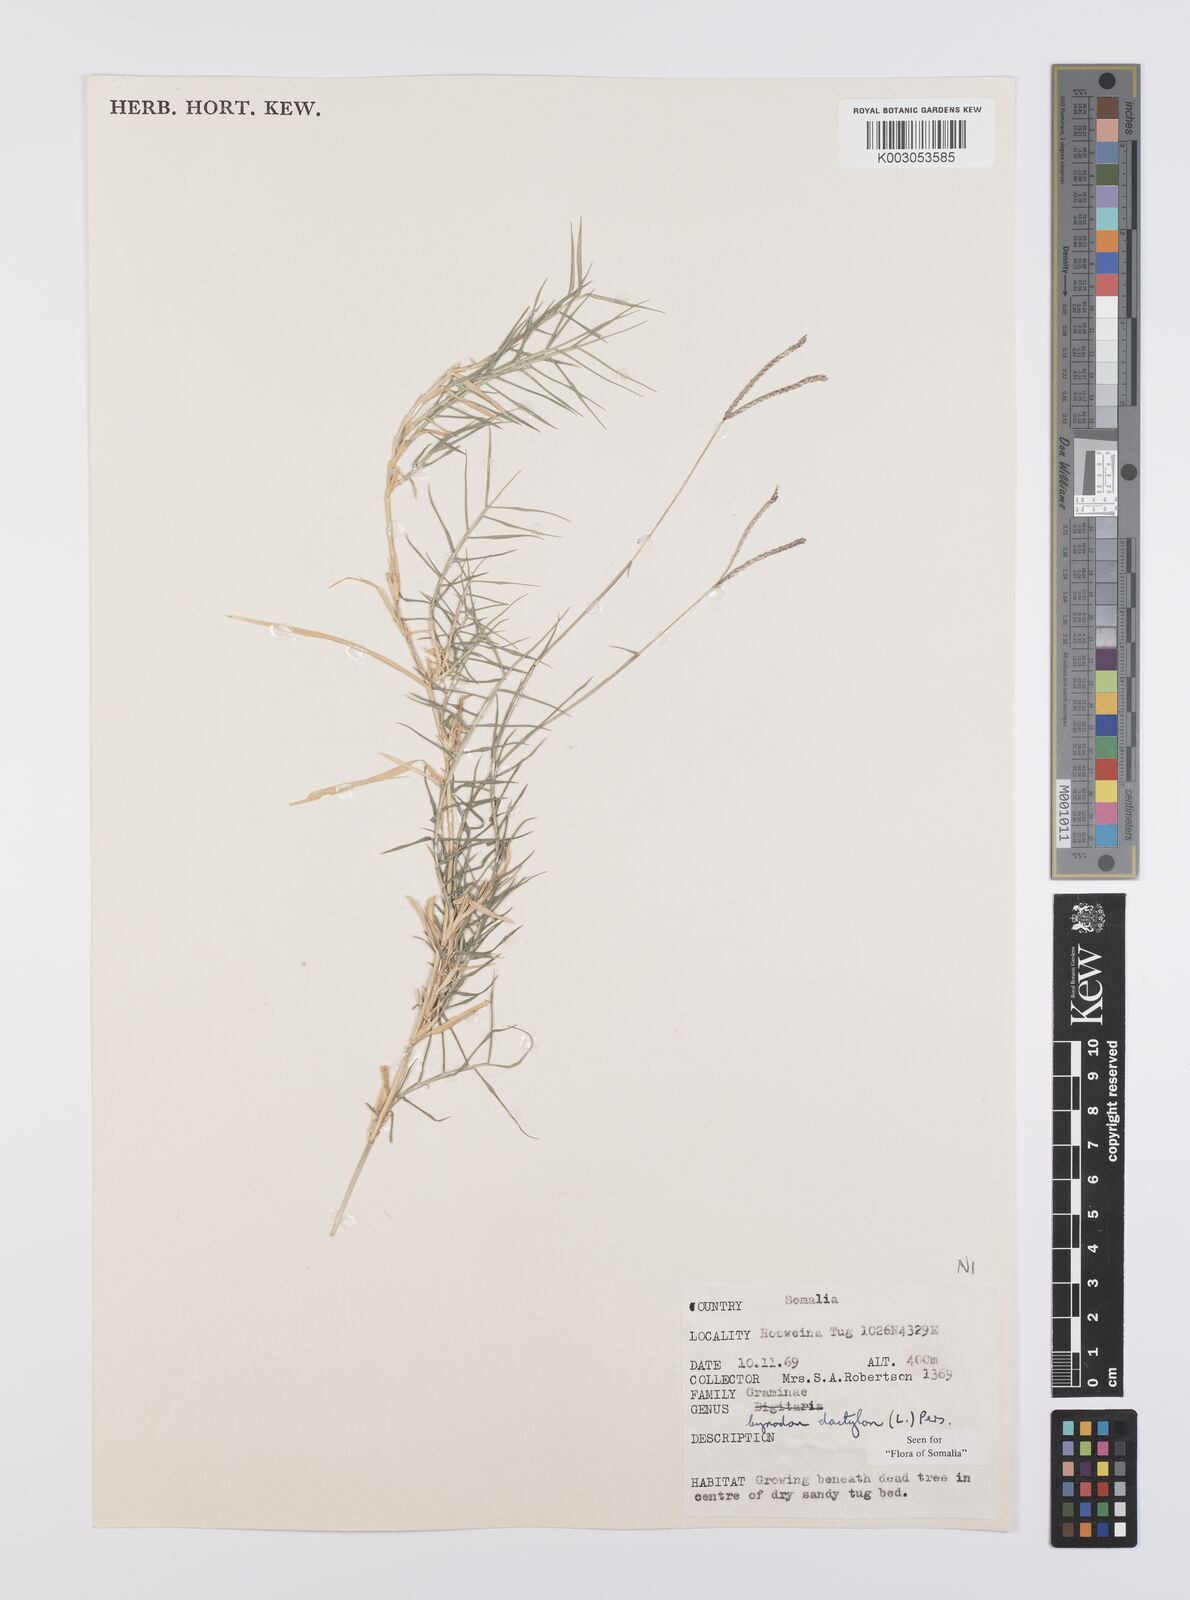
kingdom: Plantae
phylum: Tracheophyta
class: Liliopsida
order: Poales
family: Poaceae
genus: Cynodon
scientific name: Cynodon dactylon
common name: Bermuda grass
